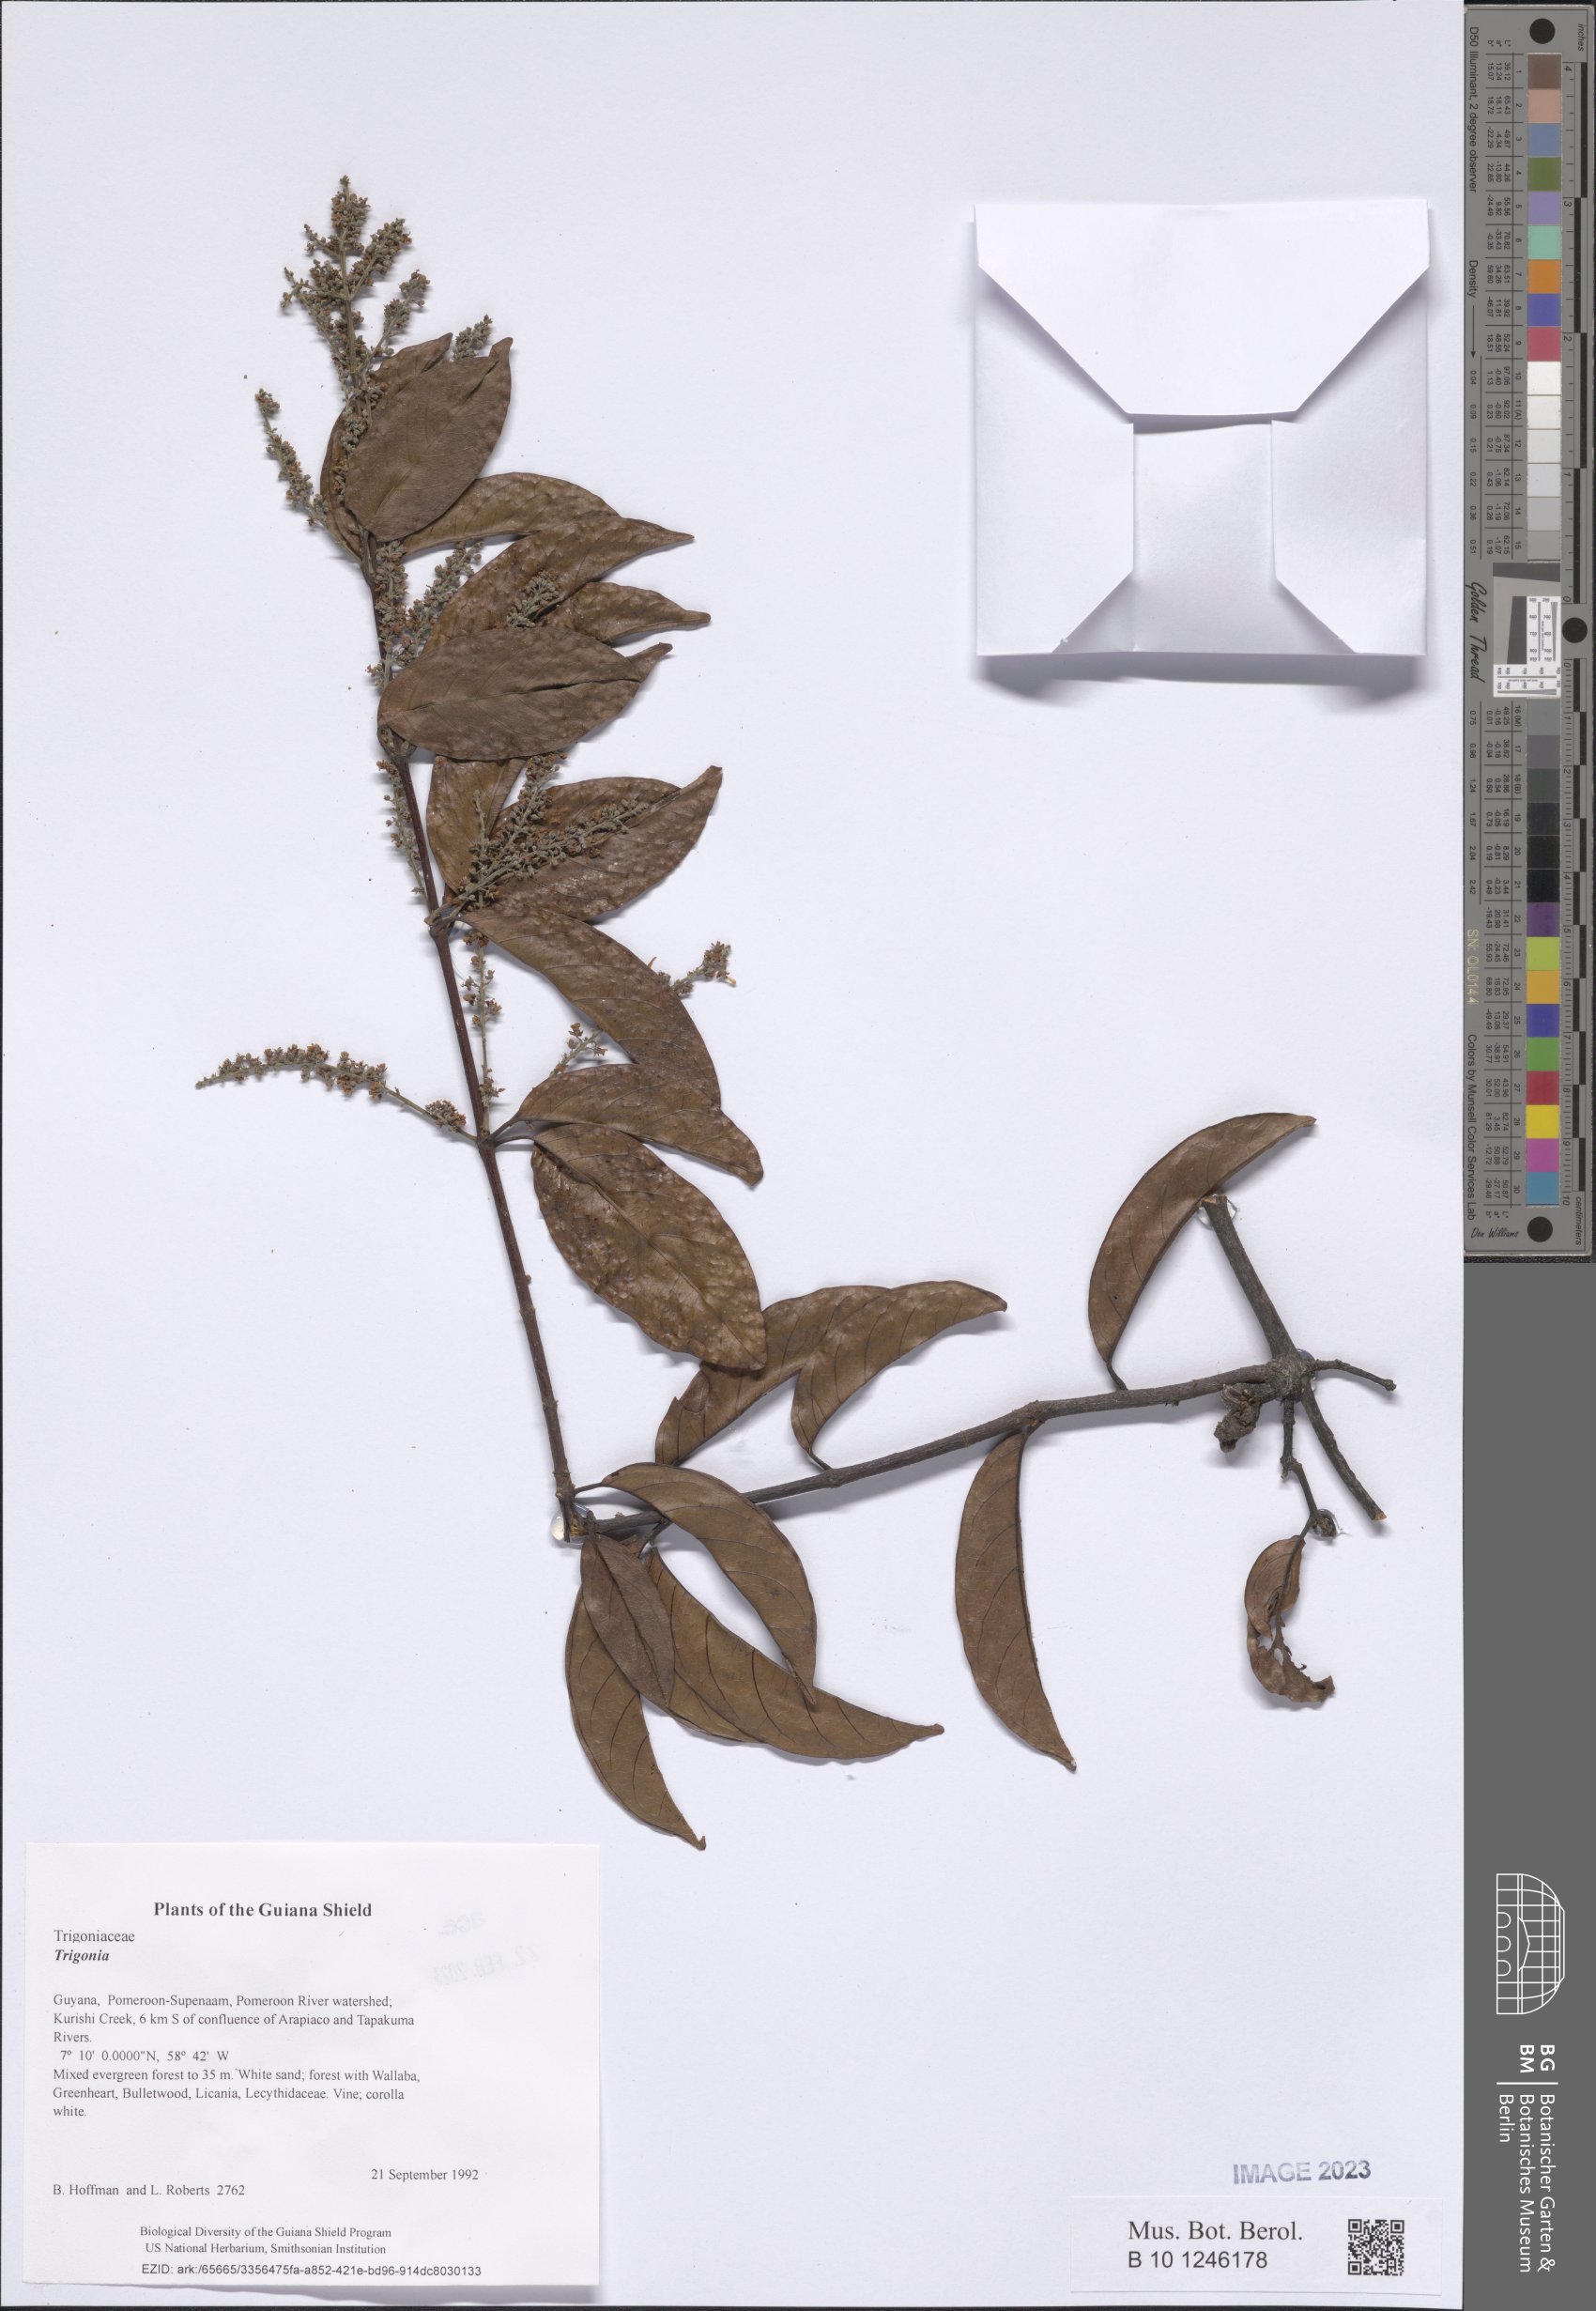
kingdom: Plantae
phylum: Tracheophyta
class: Magnoliopsida
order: Malpighiales
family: Trigoniaceae
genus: Trigonia
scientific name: Trigonia
